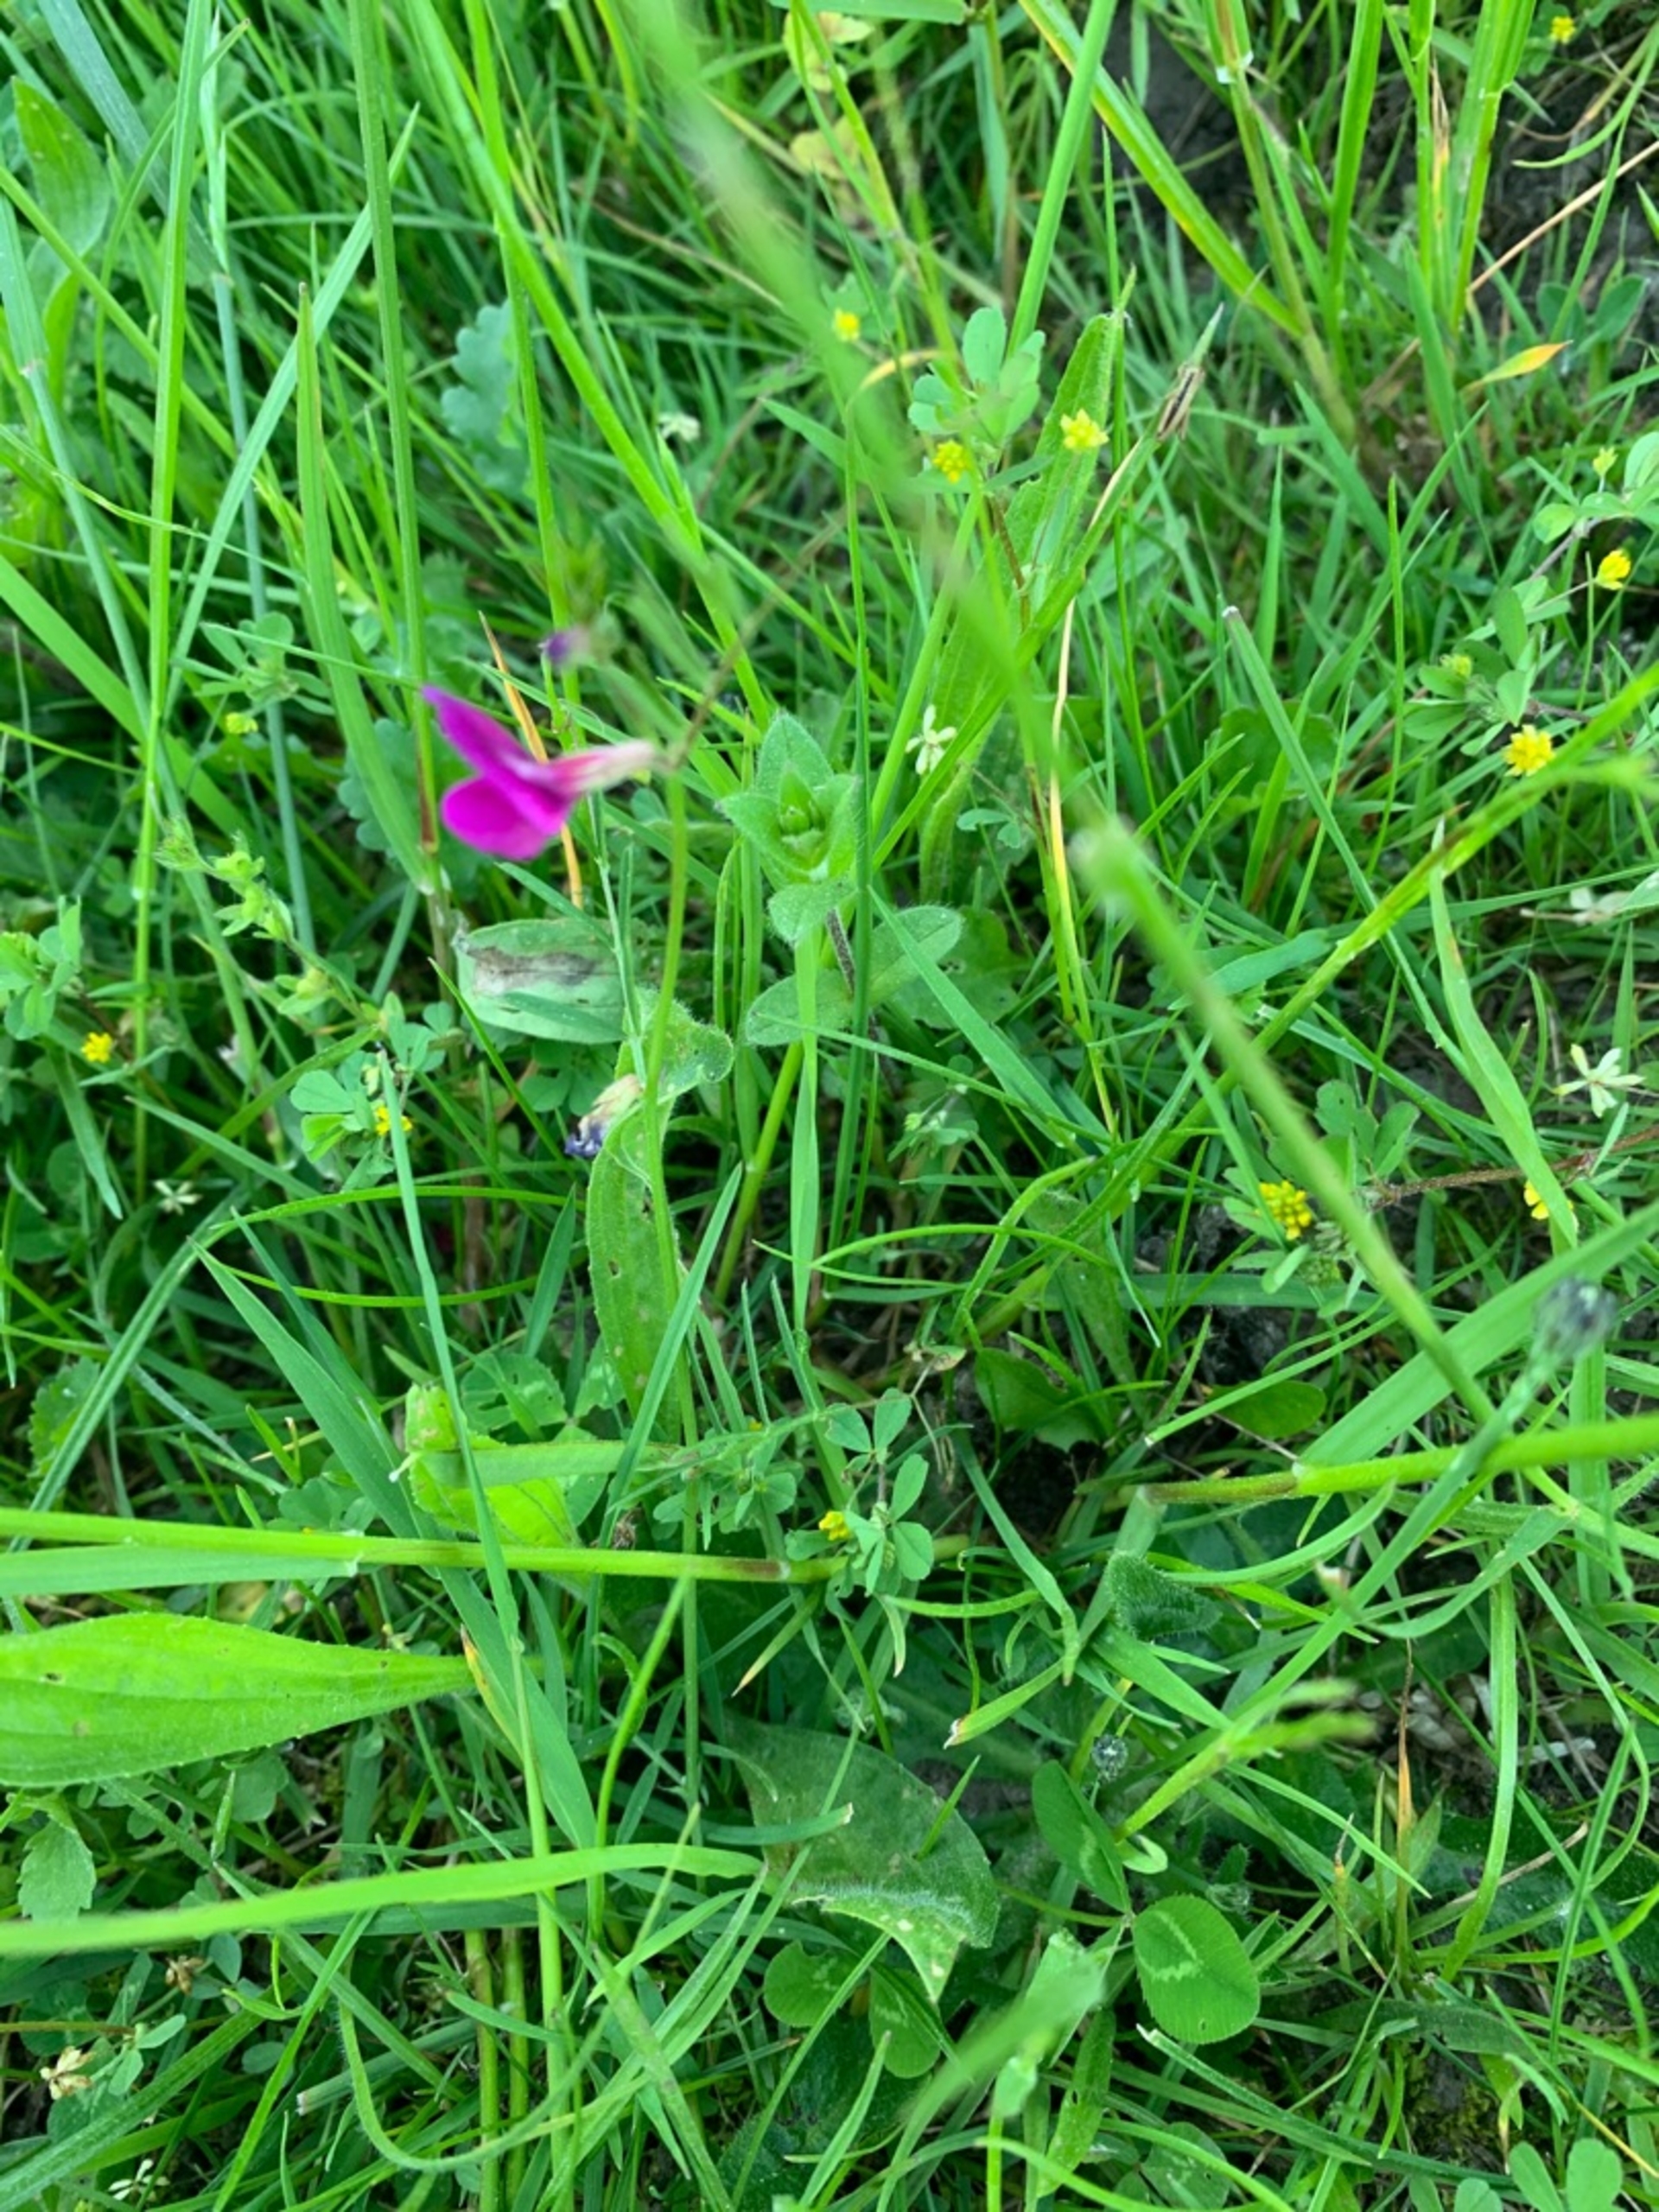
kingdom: Plantae
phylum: Tracheophyta
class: Magnoliopsida
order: Fabales
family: Fabaceae
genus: Vicia
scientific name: Vicia sativa
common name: Smalbladet vikke
